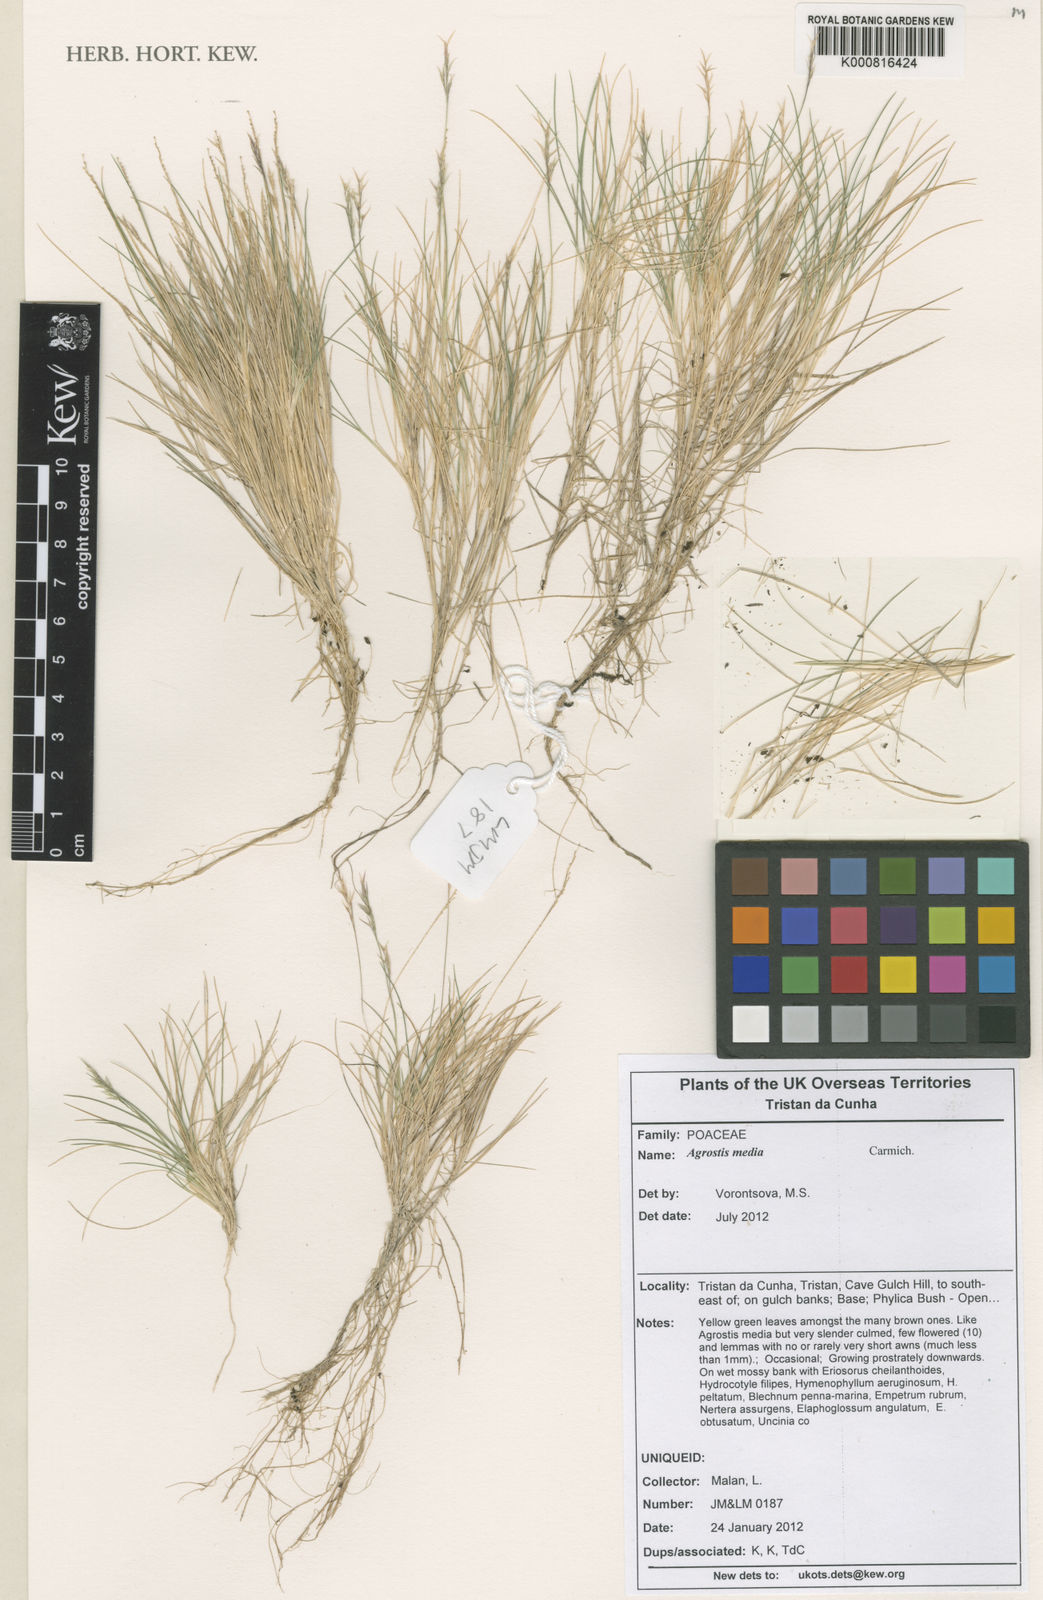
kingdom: Plantae
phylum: Tracheophyta
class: Liliopsida
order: Poales
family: Poaceae
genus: Agrostis
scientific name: Agrostis media
